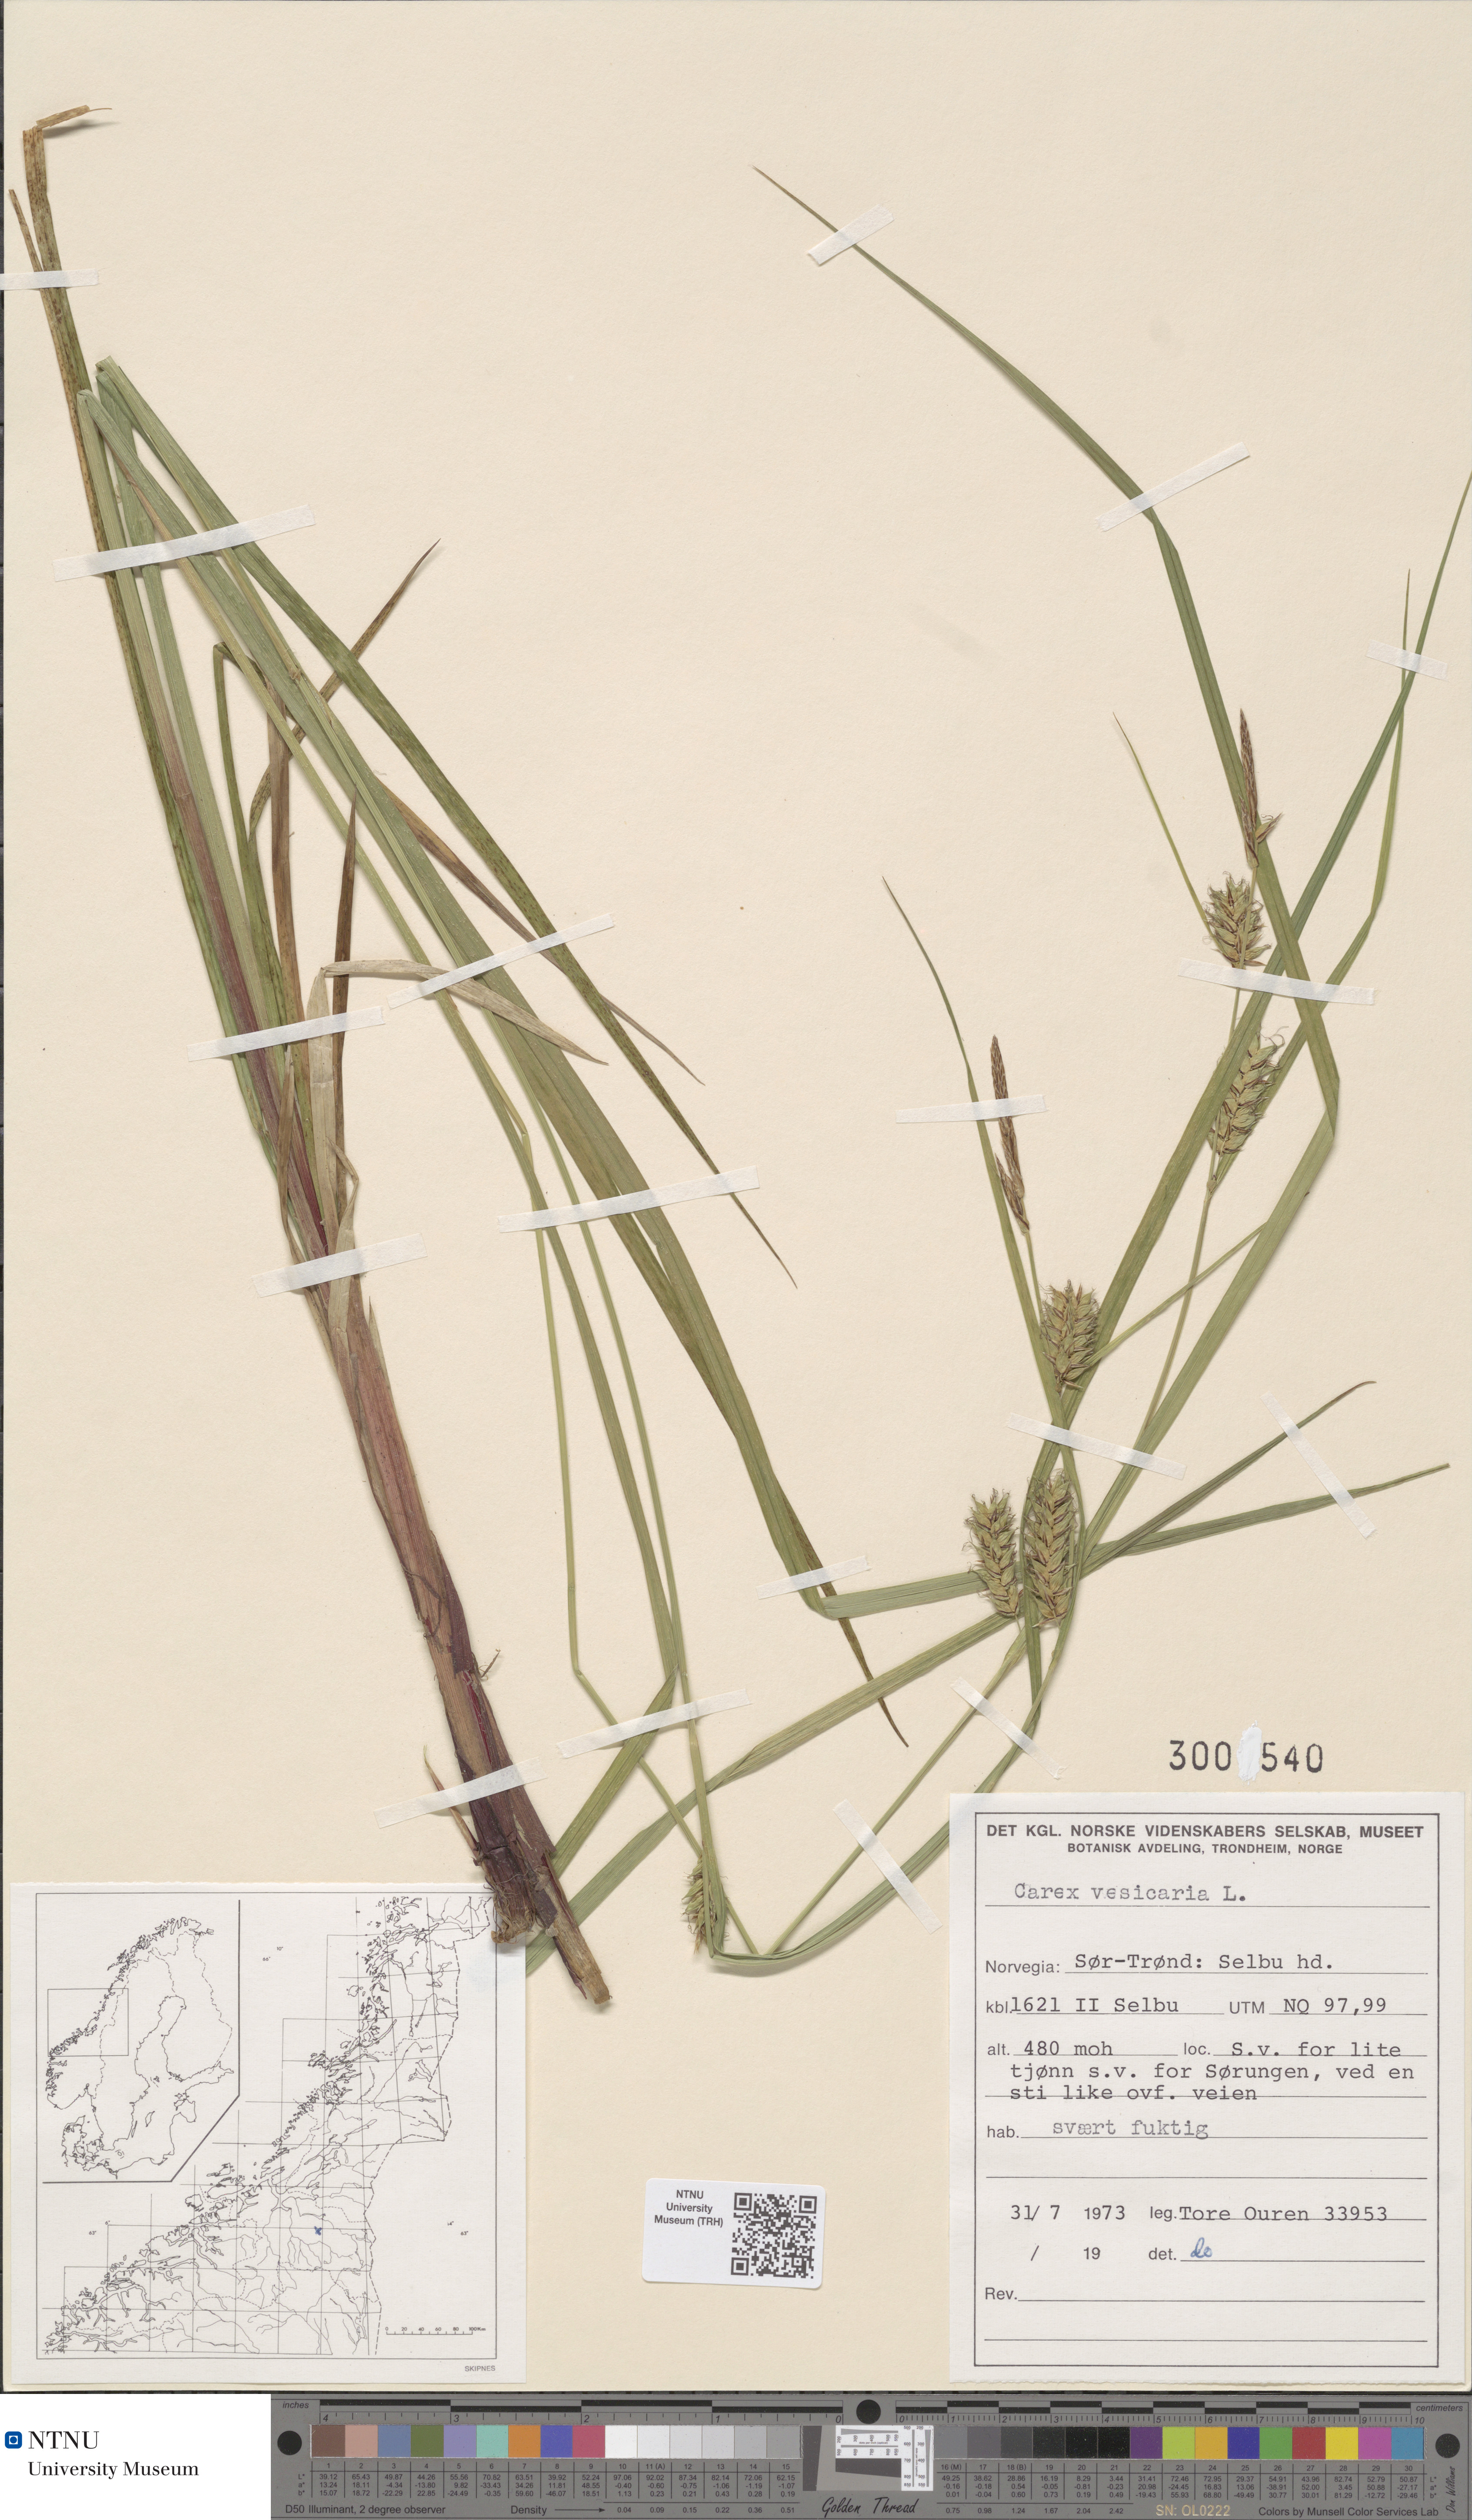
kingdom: Plantae
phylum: Tracheophyta
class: Liliopsida
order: Poales
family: Cyperaceae
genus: Carex
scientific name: Carex vesicaria
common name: Bladder-sedge
